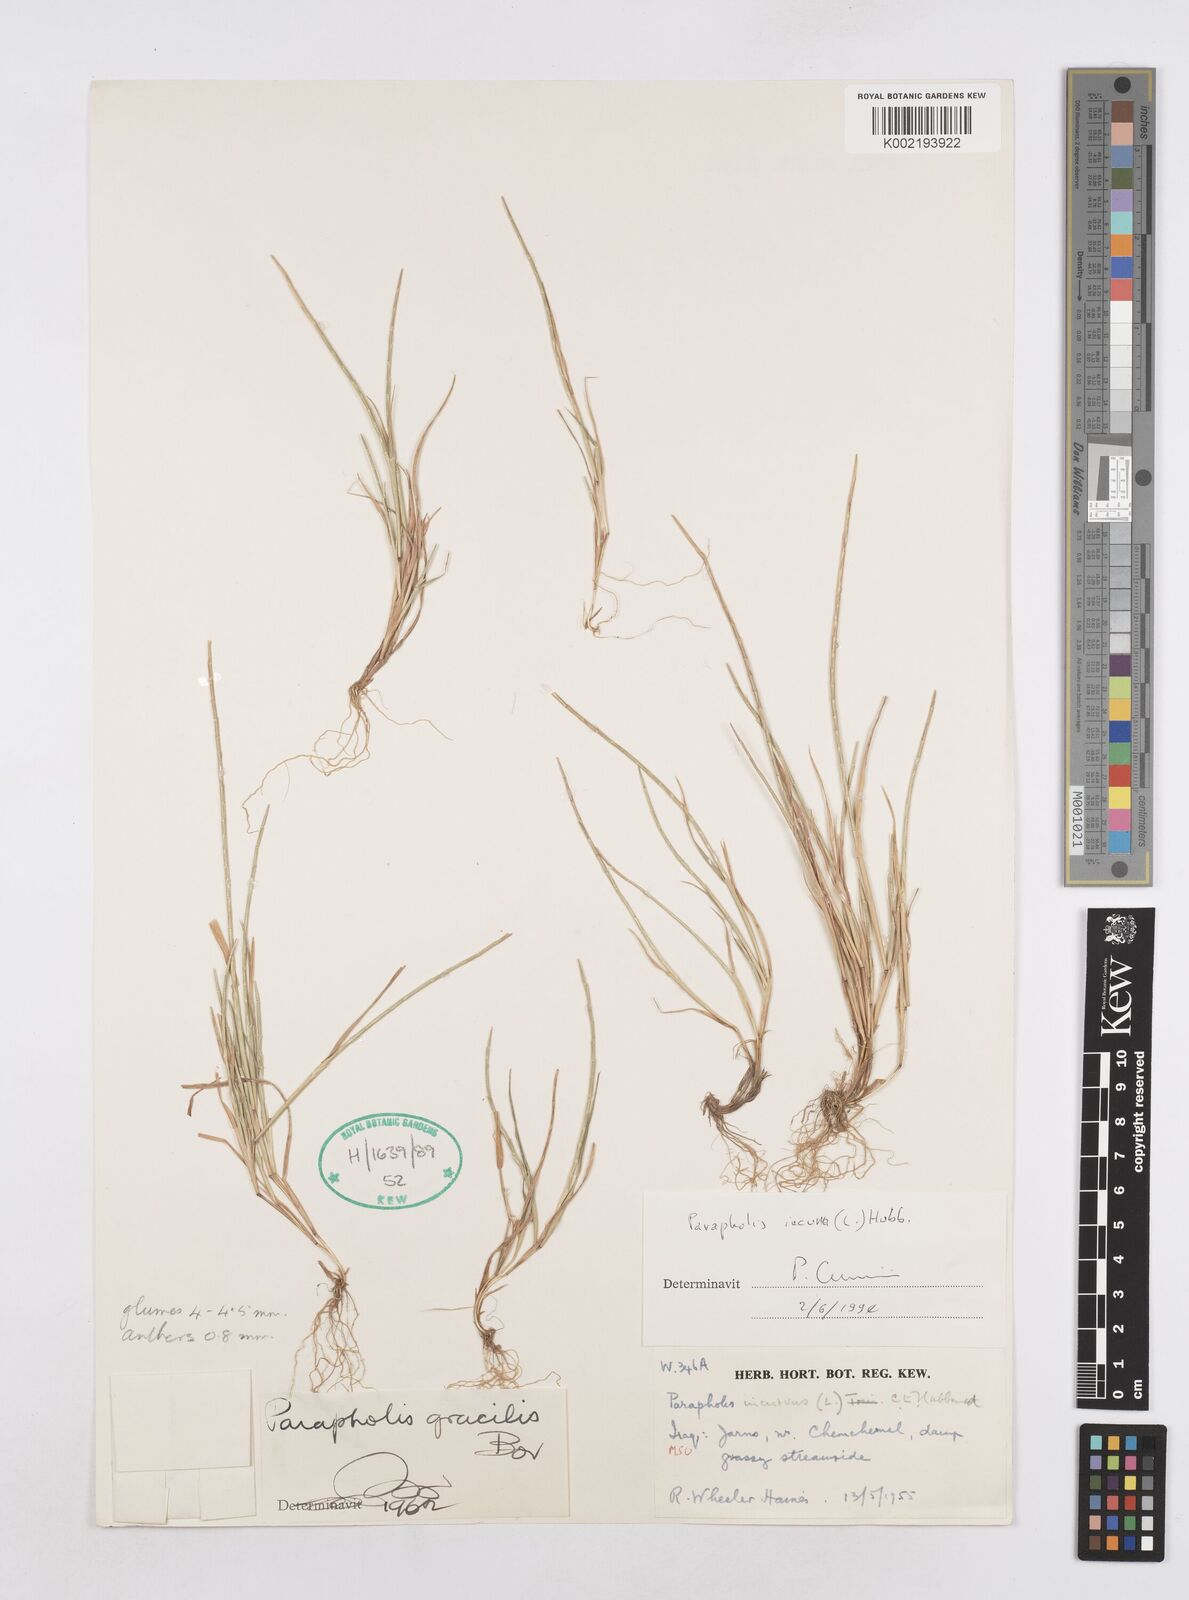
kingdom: Plantae
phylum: Tracheophyta
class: Liliopsida
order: Poales
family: Poaceae
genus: Parapholis
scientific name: Parapholis incurva
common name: Curved sicklegrass
